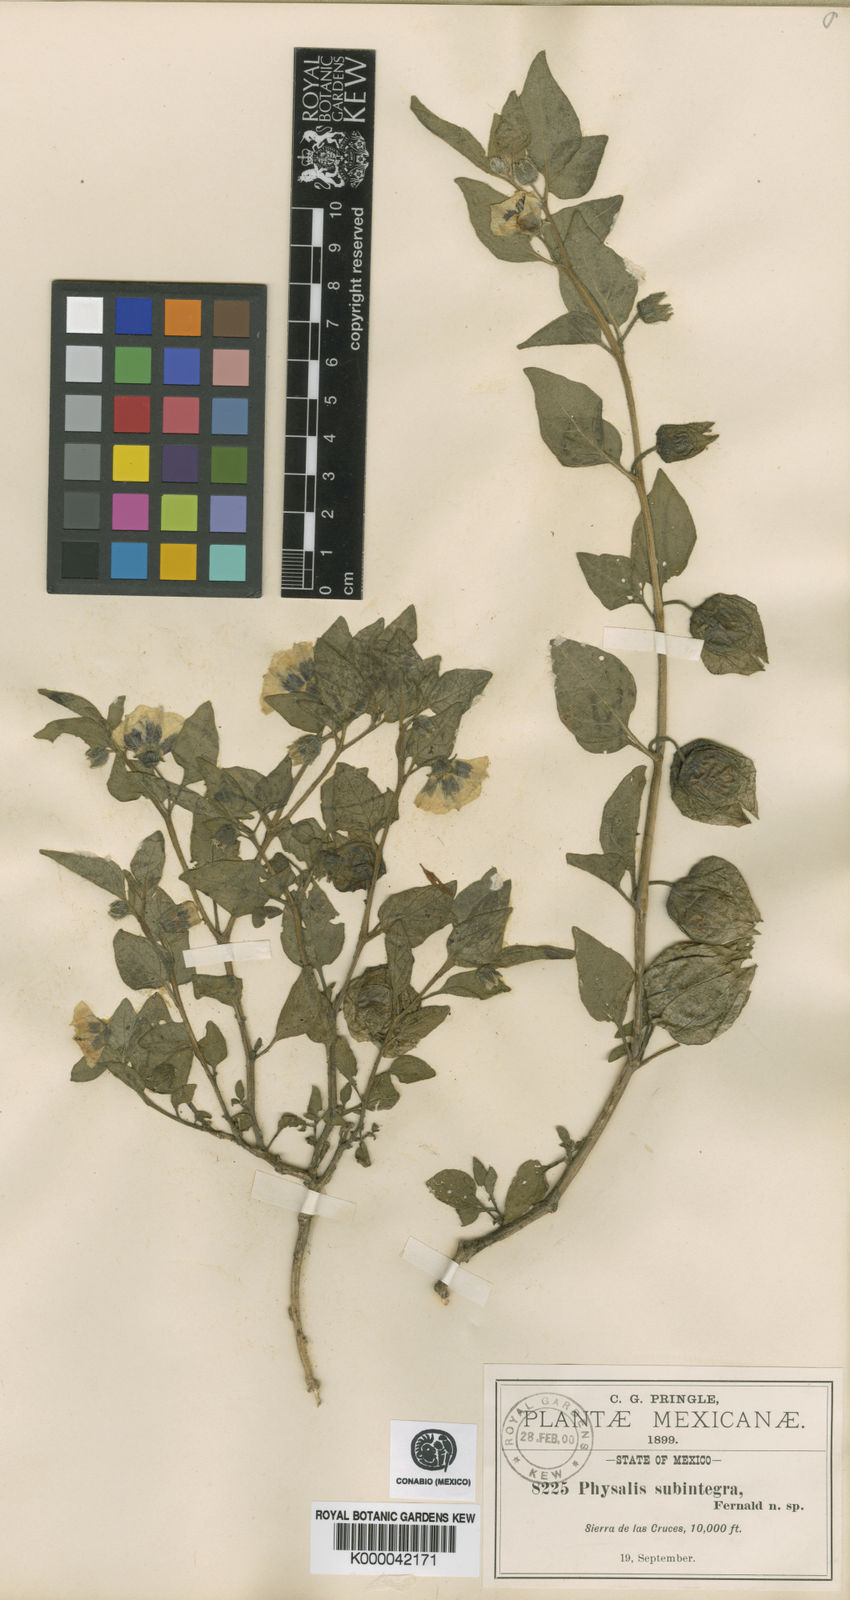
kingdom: Plantae
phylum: Tracheophyta
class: Magnoliopsida
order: Solanales
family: Solanaceae
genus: Physalis
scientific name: Physalis orizabae
